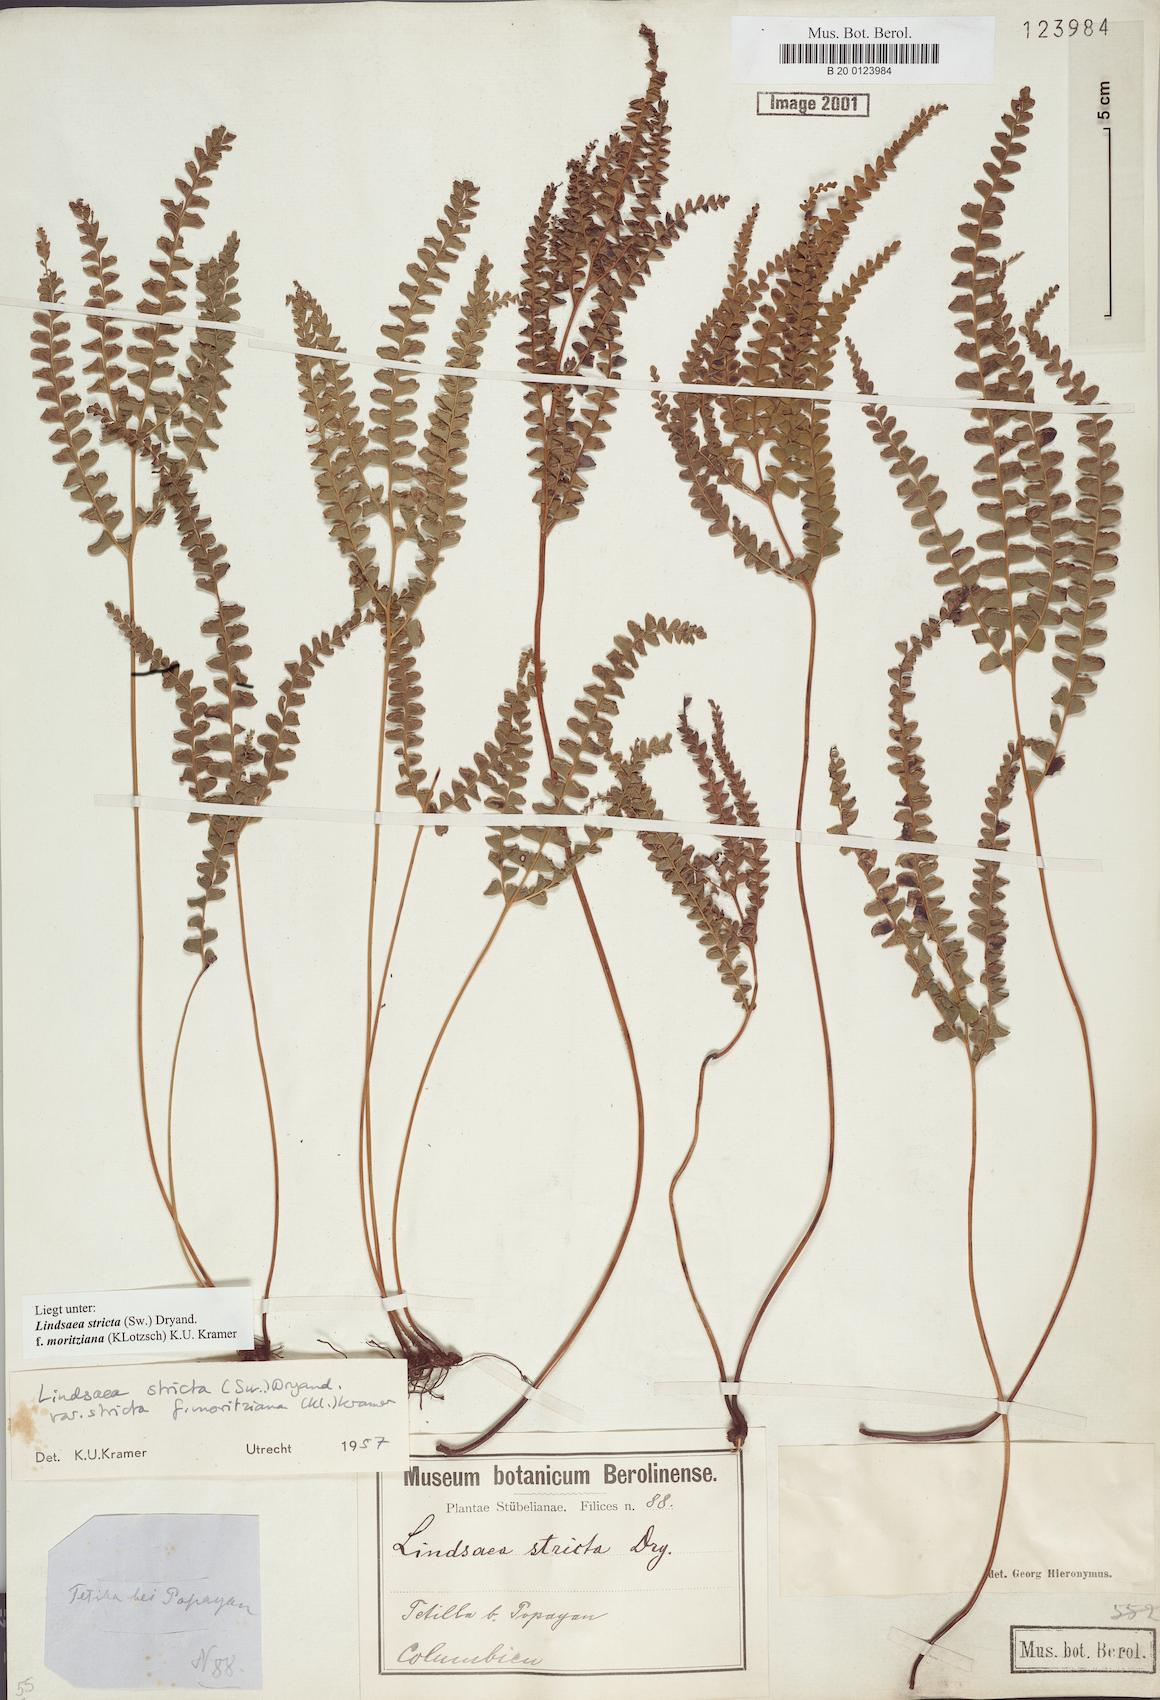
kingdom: Plantae
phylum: Tracheophyta
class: Polypodiopsida
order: Polypodiales
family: Lindsaeaceae
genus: Lindsaea
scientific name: Lindsaea guianensis
